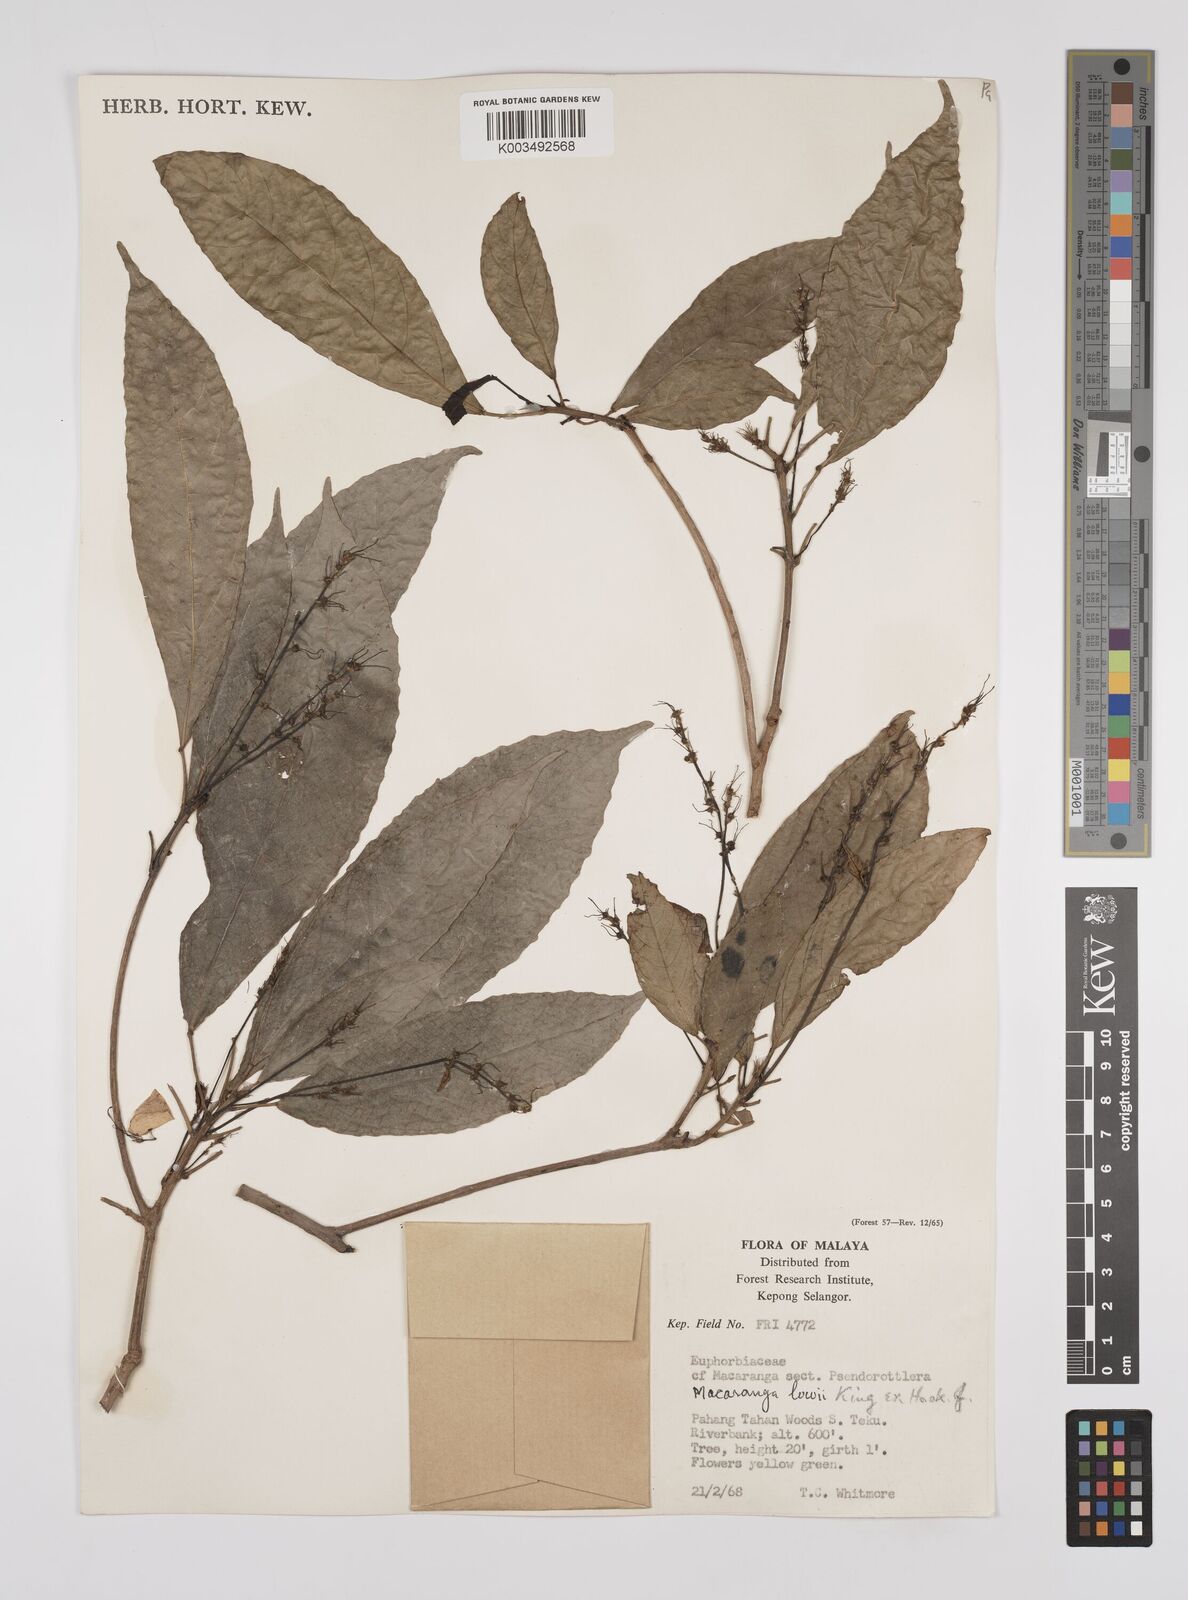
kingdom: Plantae
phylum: Tracheophyta
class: Magnoliopsida
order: Malpighiales
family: Euphorbiaceae
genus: Macaranga
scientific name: Macaranga lowii
